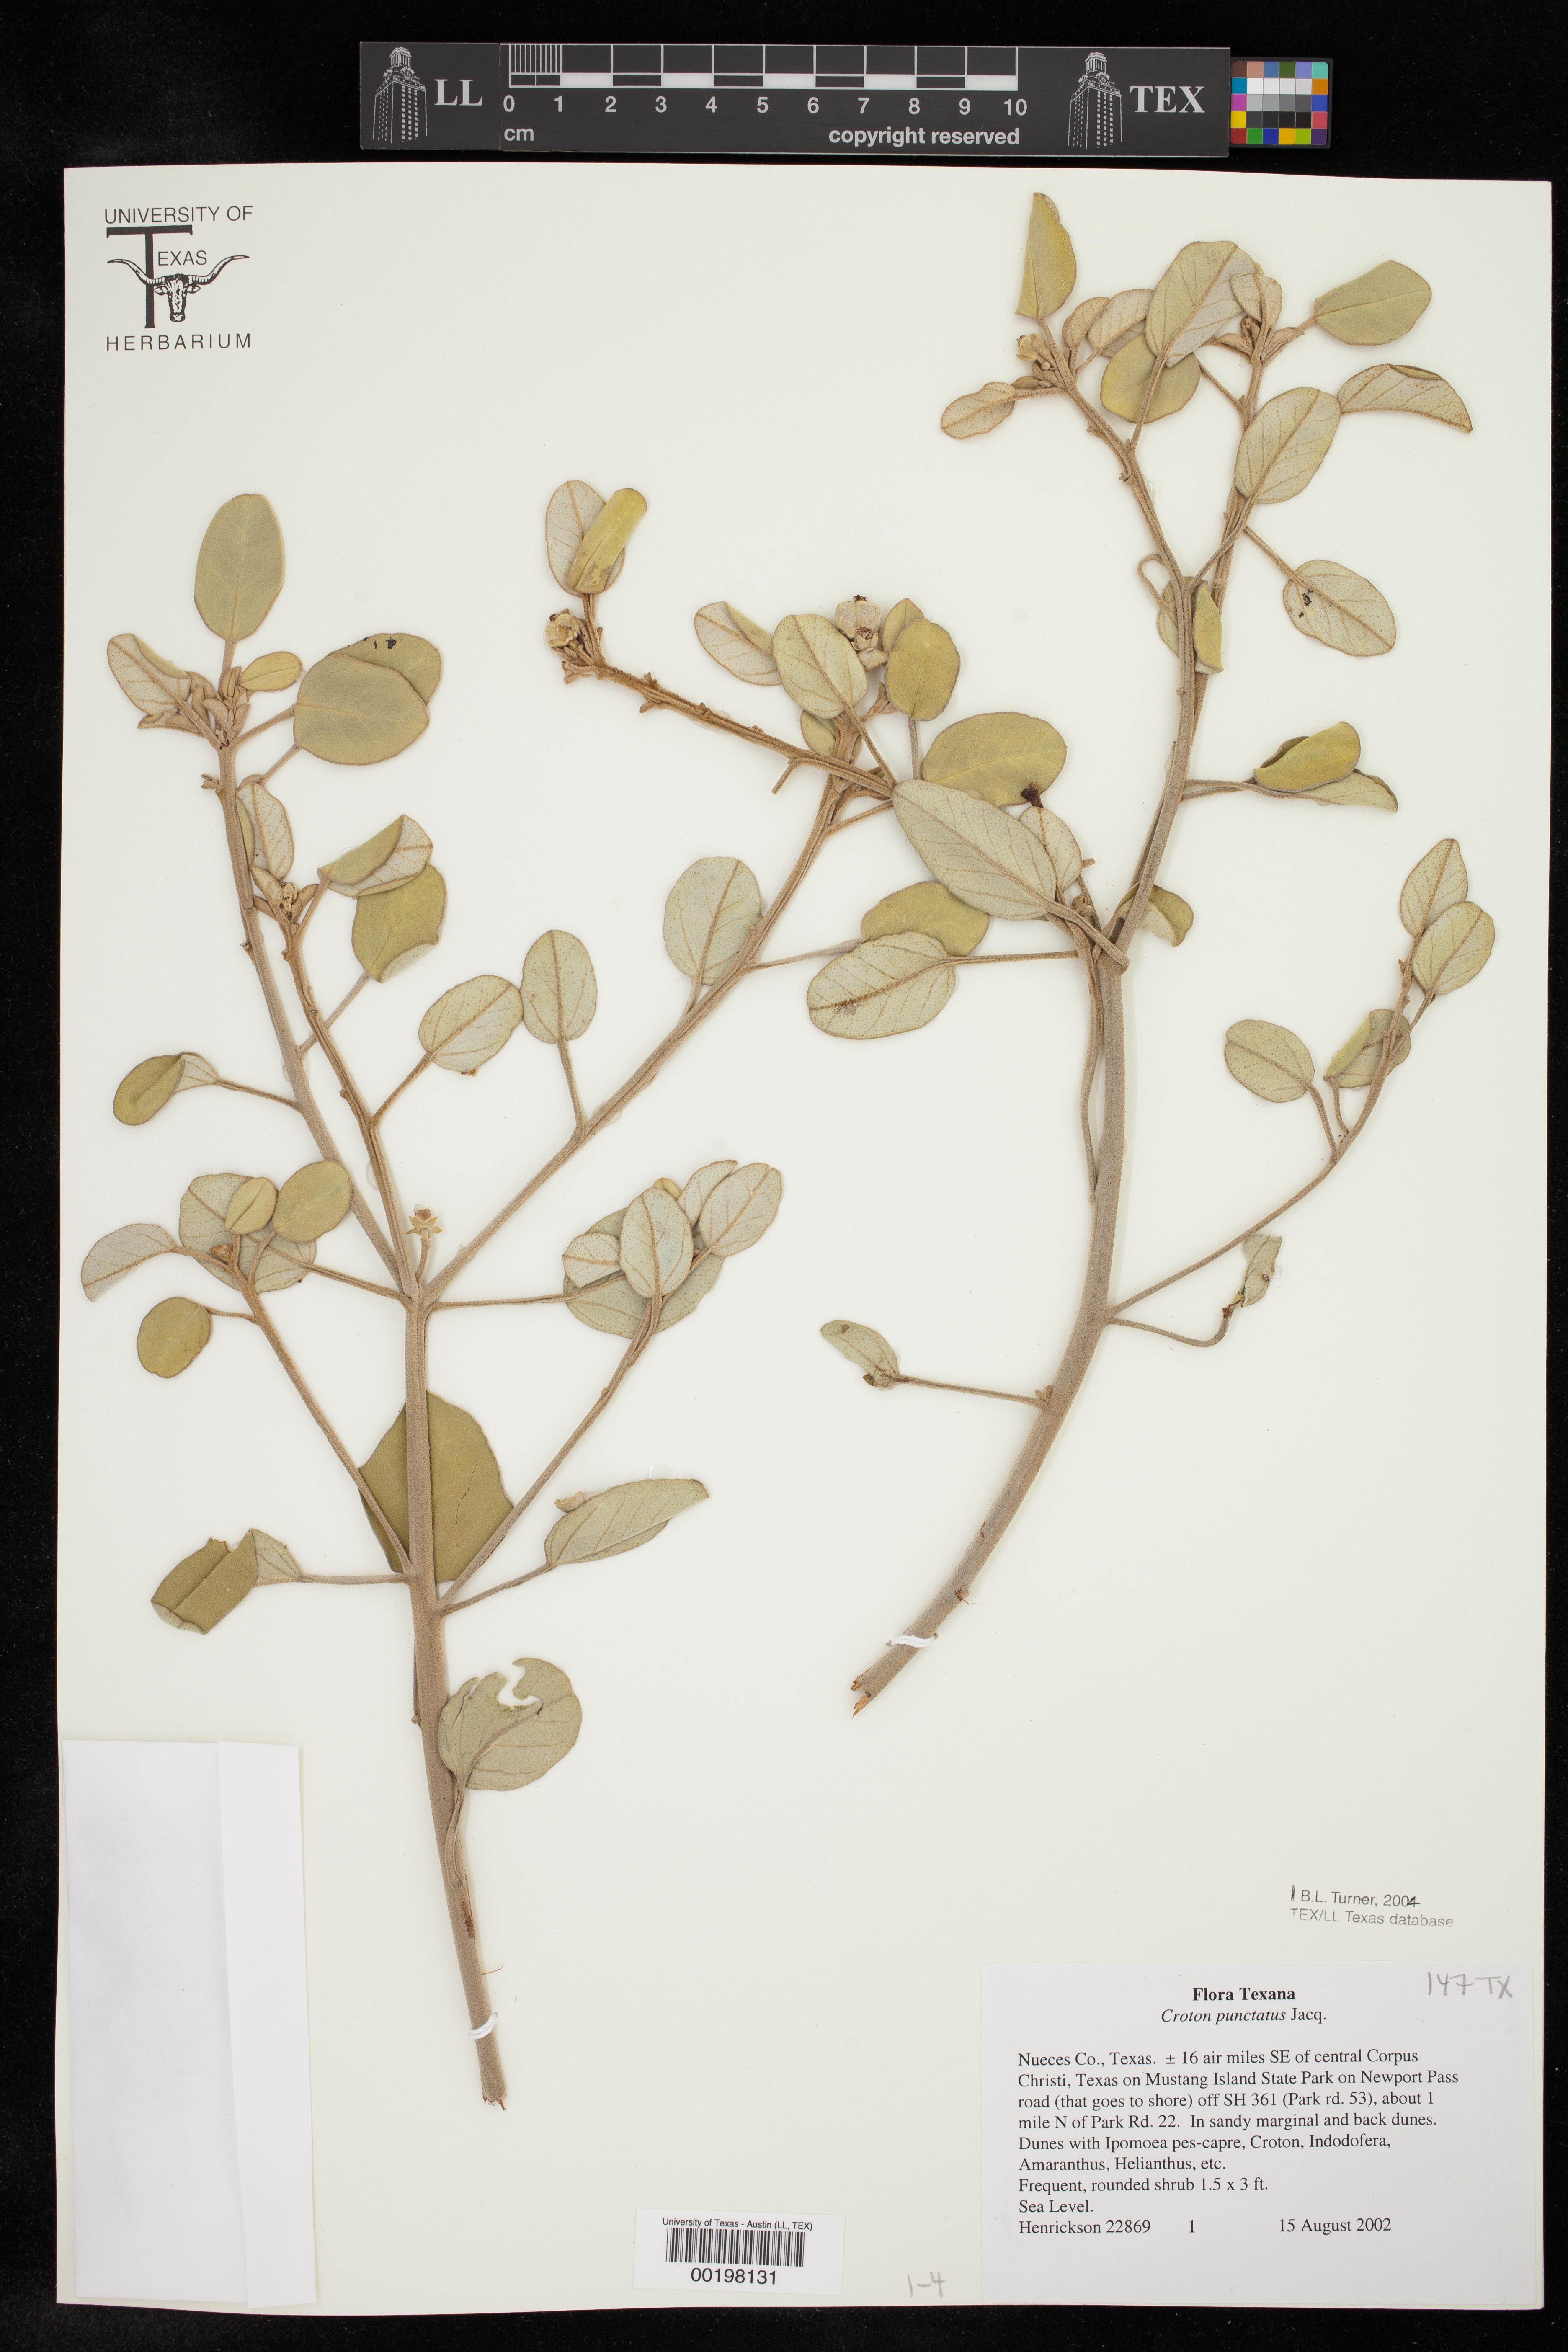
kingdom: Plantae
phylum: Tracheophyta
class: Magnoliopsida
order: Malpighiales
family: Euphorbiaceae
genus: Croton
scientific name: Croton punctatus
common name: Beach-tea
